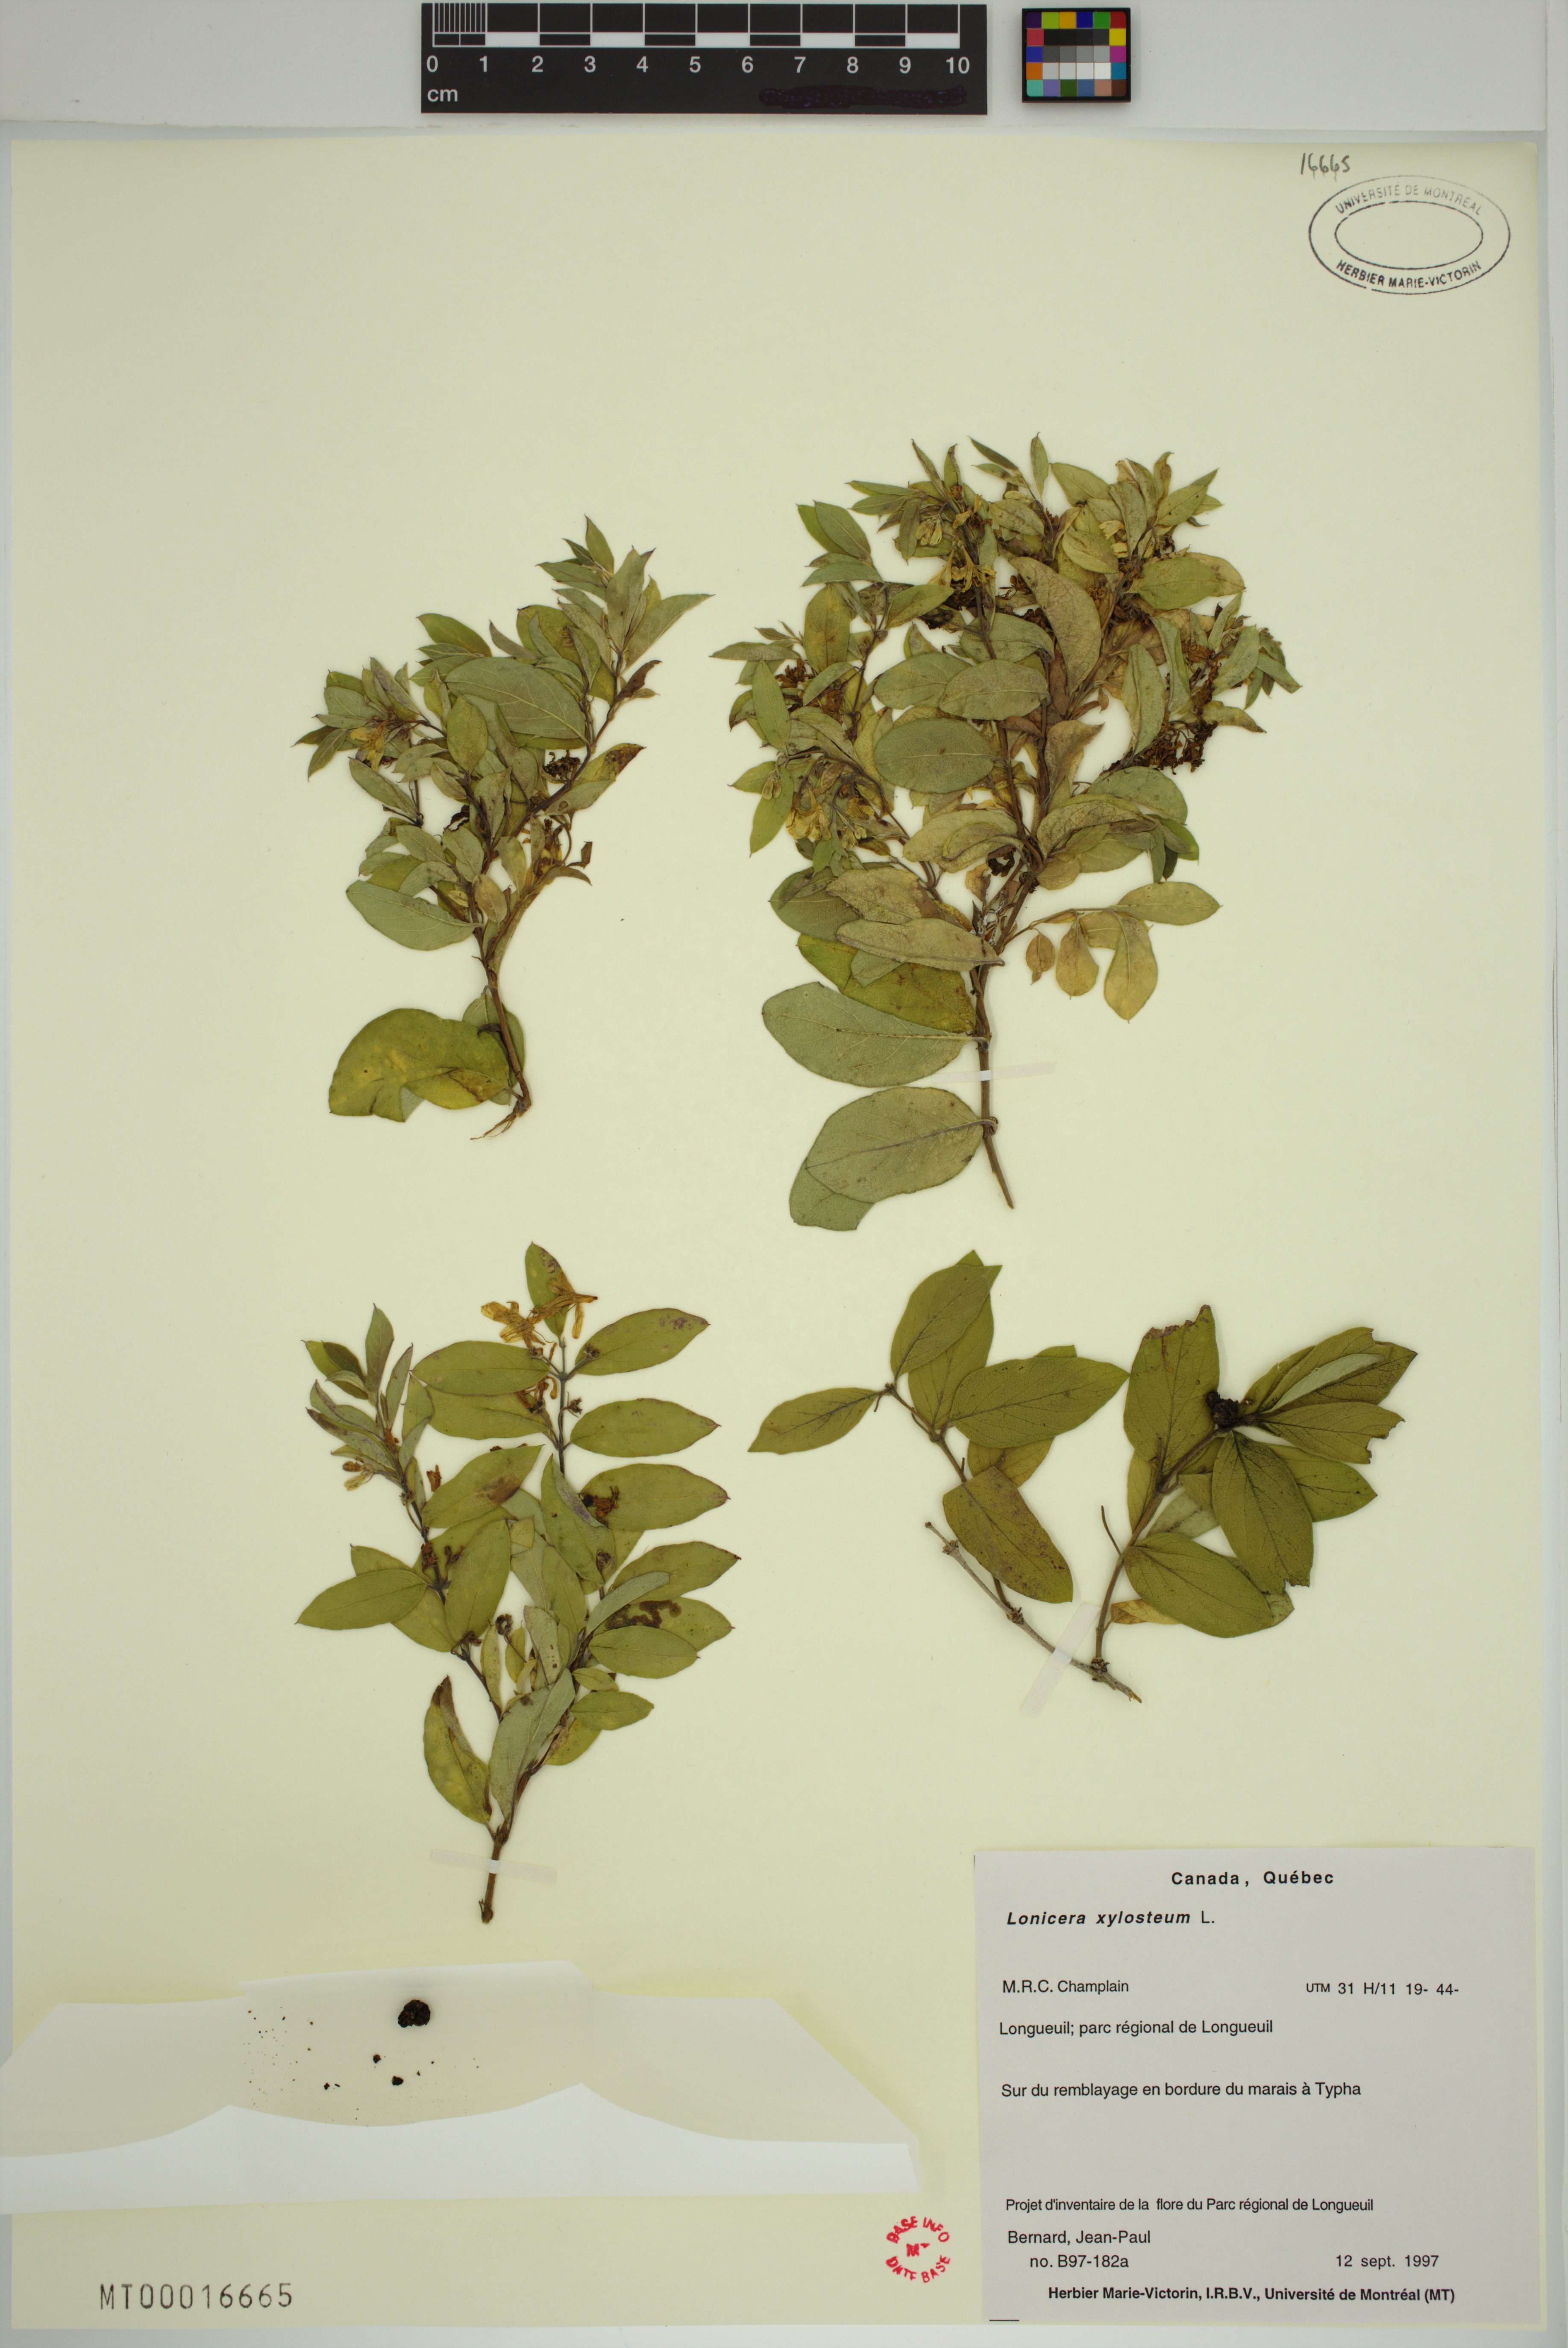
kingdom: Plantae
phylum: Tracheophyta
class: Magnoliopsida
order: Dipsacales
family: Caprifoliaceae
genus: Lonicera
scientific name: Lonicera bella
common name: Bell's honeysuckle
